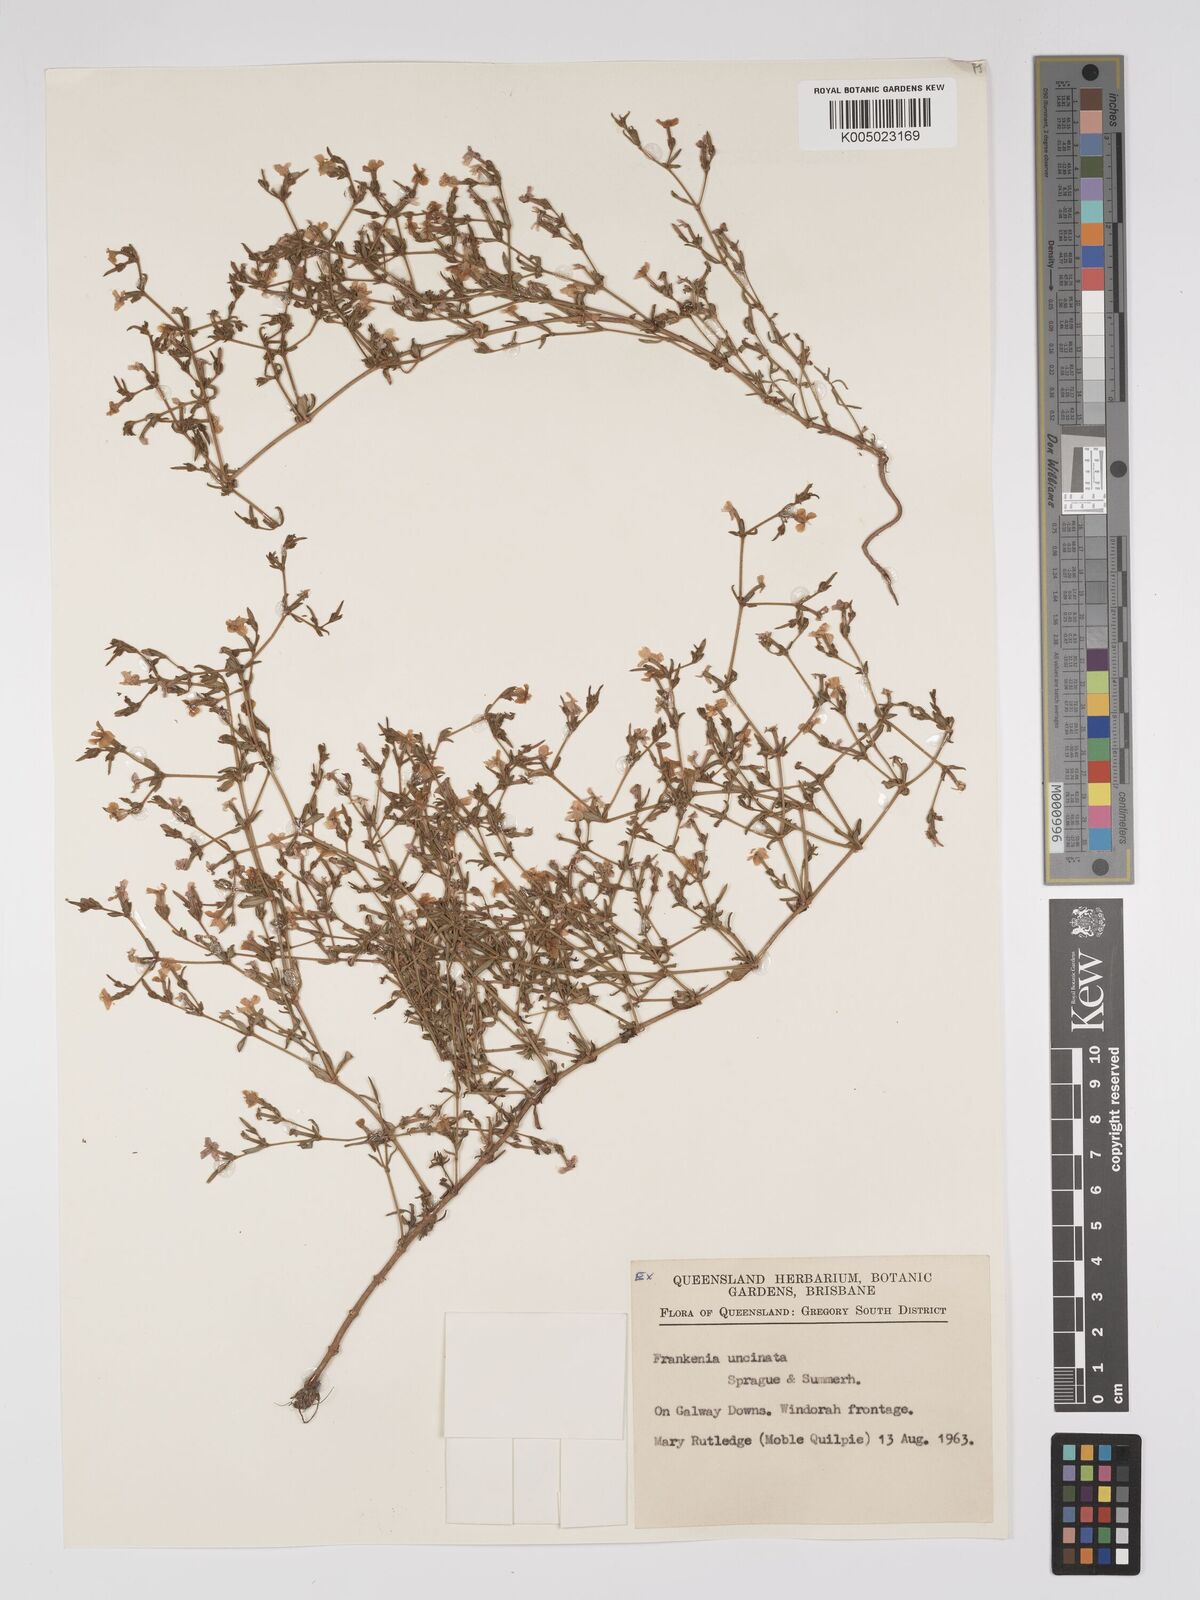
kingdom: Plantae
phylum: Tracheophyta
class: Magnoliopsida
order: Caryophyllales
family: Frankeniaceae
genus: Frankenia
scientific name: Frankenia uncinata
